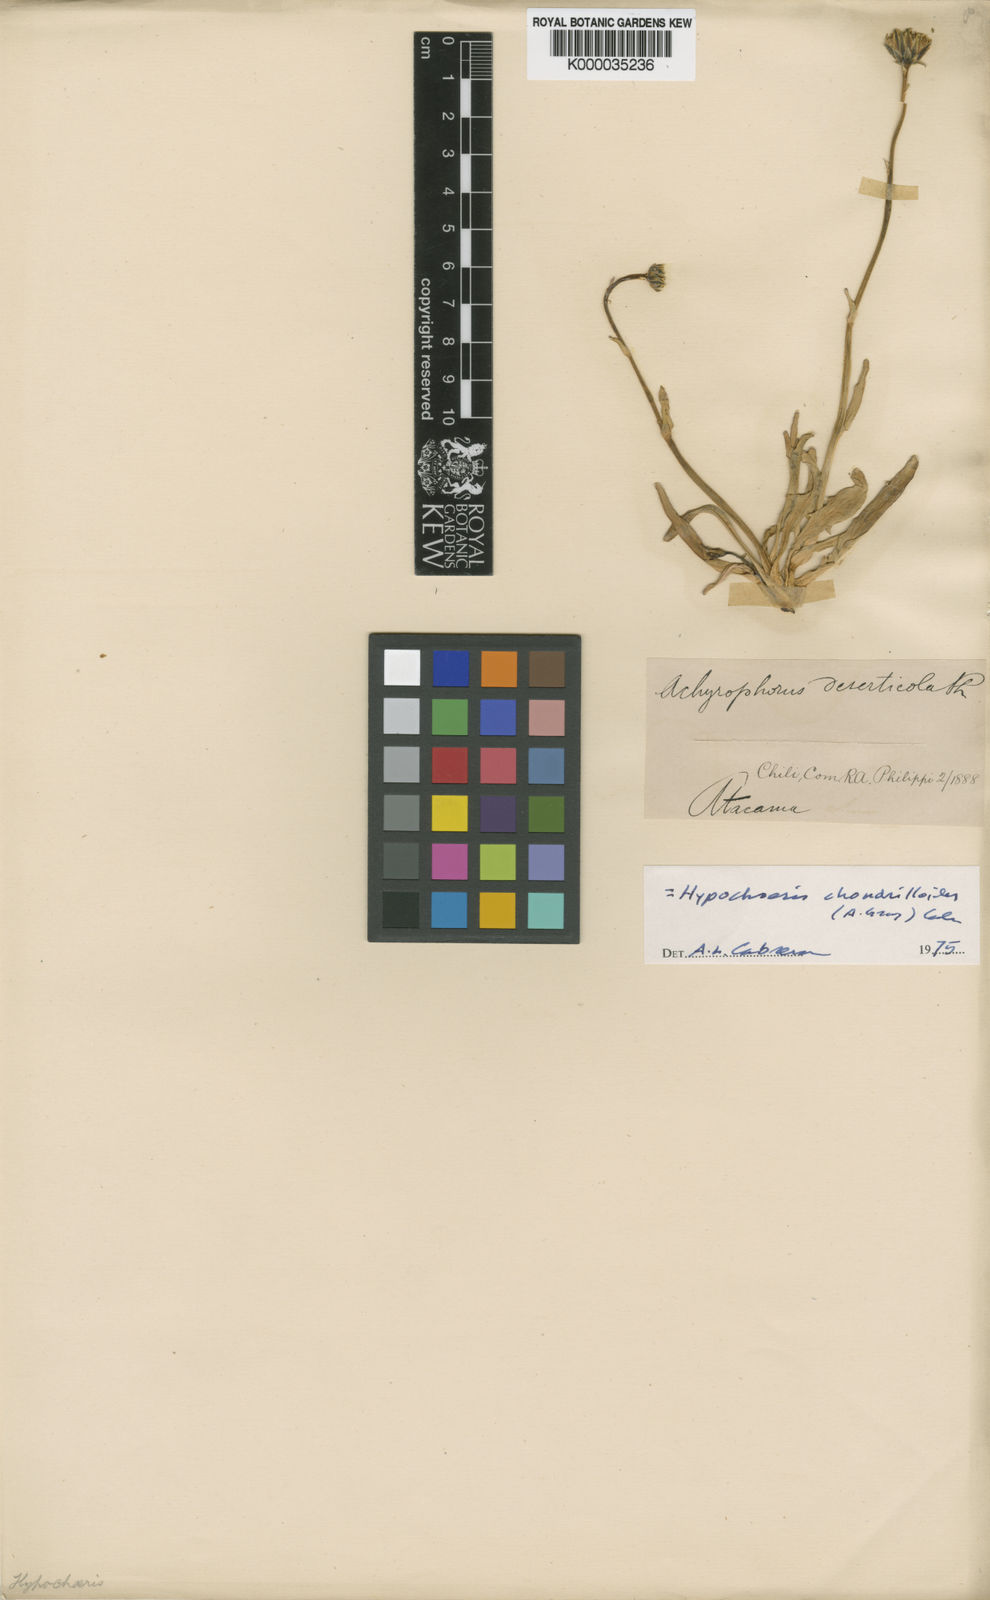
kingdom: Plantae
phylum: Tracheophyta
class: Magnoliopsida
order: Asterales
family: Asteraceae
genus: Hypochaeris
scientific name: Hypochaeris chondrilloides
